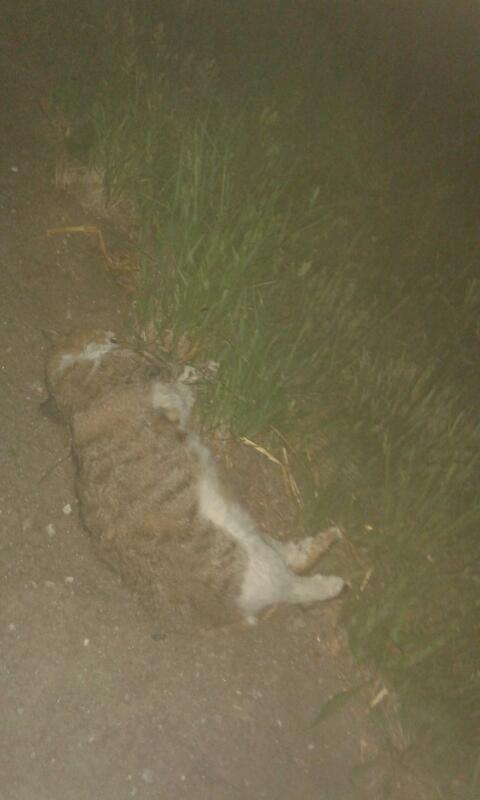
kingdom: Animalia
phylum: Chordata
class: Mammalia
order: Carnivora
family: Felidae
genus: Felis
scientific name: Felis catus
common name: Domestic cat
